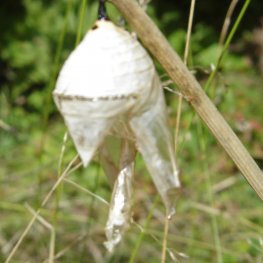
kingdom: Animalia
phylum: Arthropoda
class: Insecta
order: Lepidoptera
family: Nymphalidae
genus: Danaus
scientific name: Danaus plexippus
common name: Monarch
